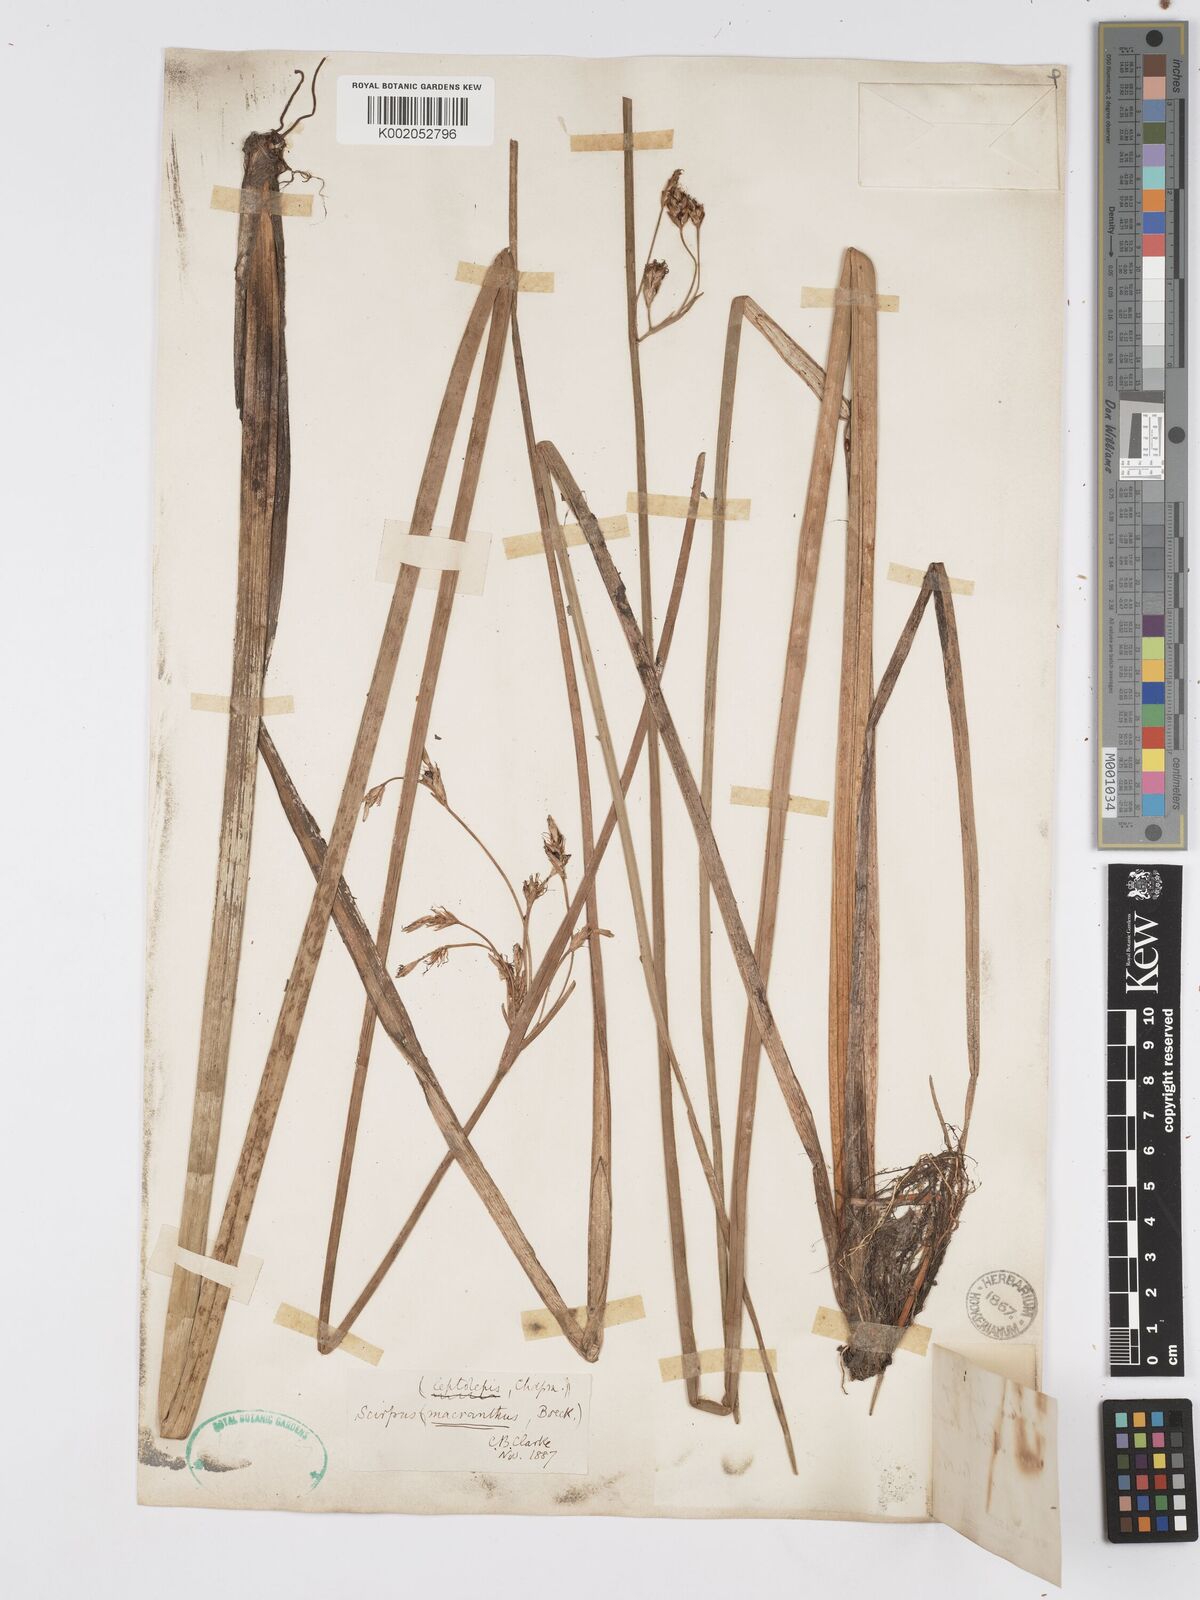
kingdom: Plantae
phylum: Tracheophyta
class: Liliopsida
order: Poales
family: Cyperaceae
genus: Schoenoplectus
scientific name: Schoenoplectus etuberculatus
